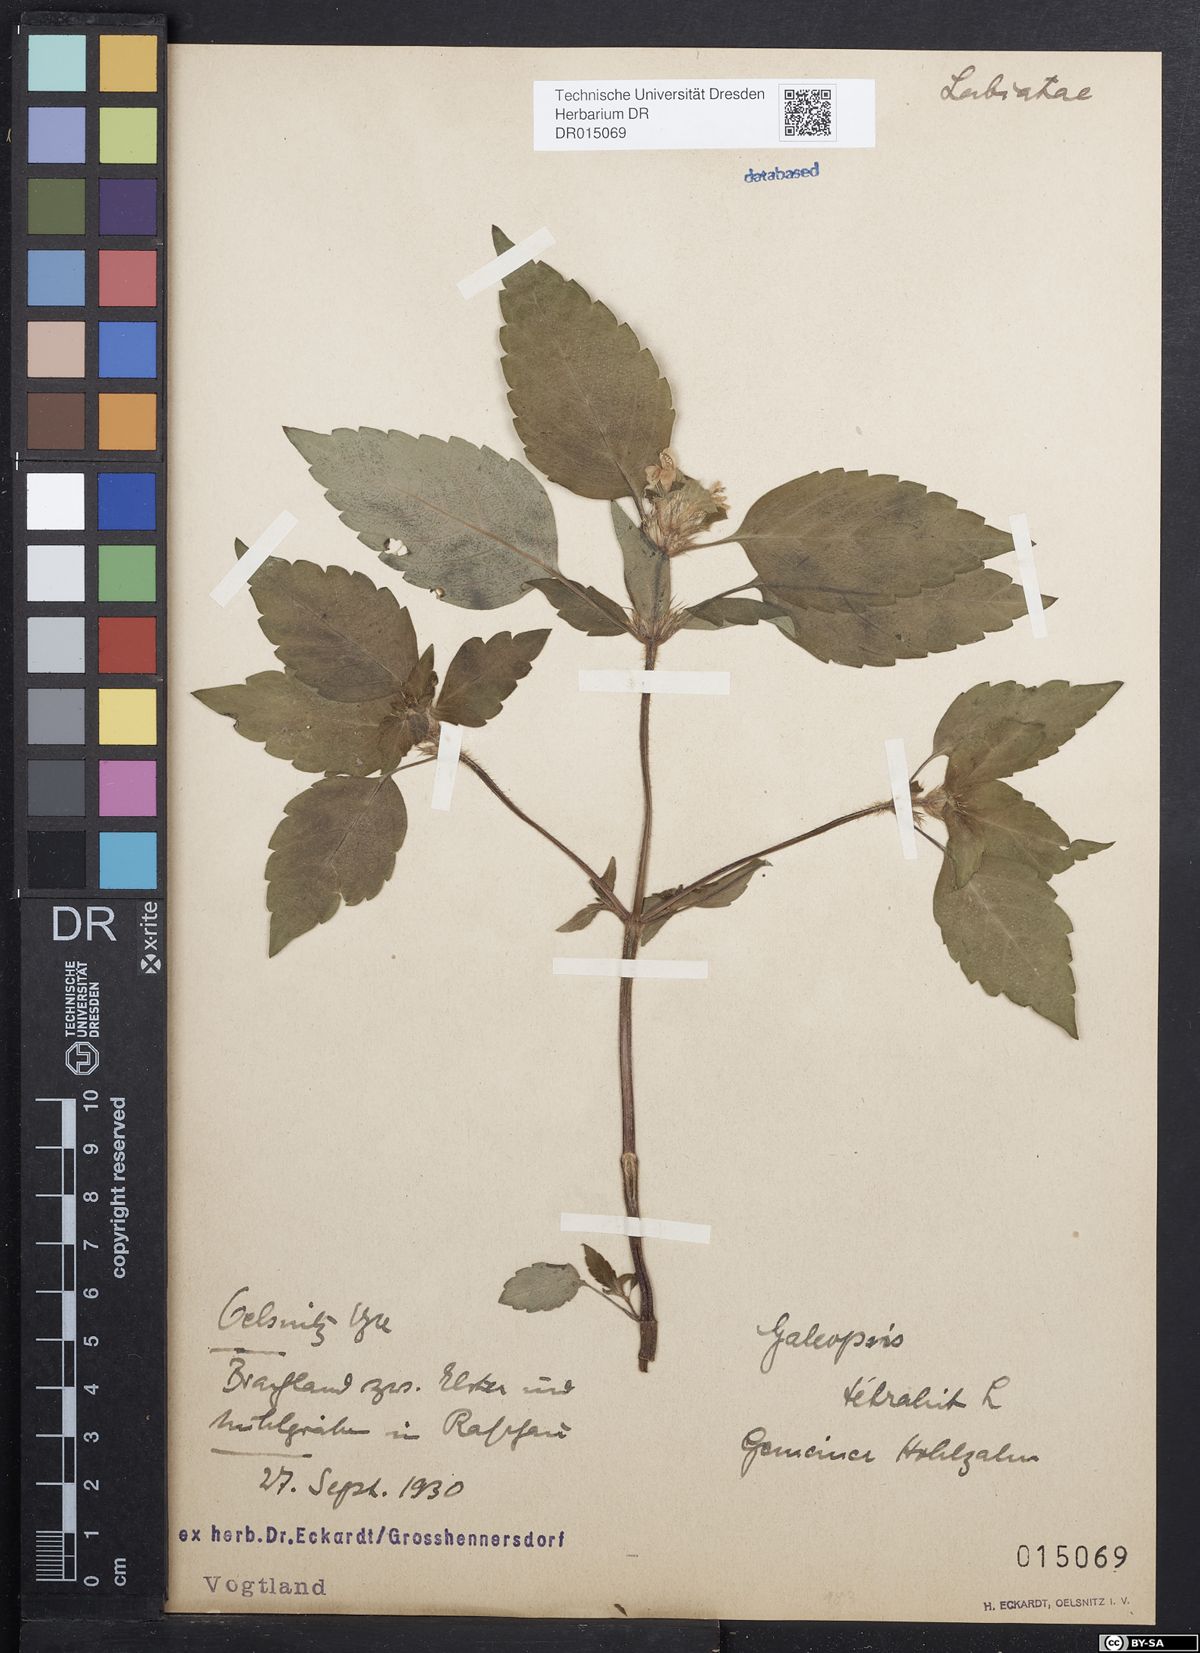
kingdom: Plantae
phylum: Tracheophyta
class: Magnoliopsida
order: Lamiales
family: Lamiaceae
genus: Galeopsis
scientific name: Galeopsis tetrahit
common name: Common hemp-nettle
